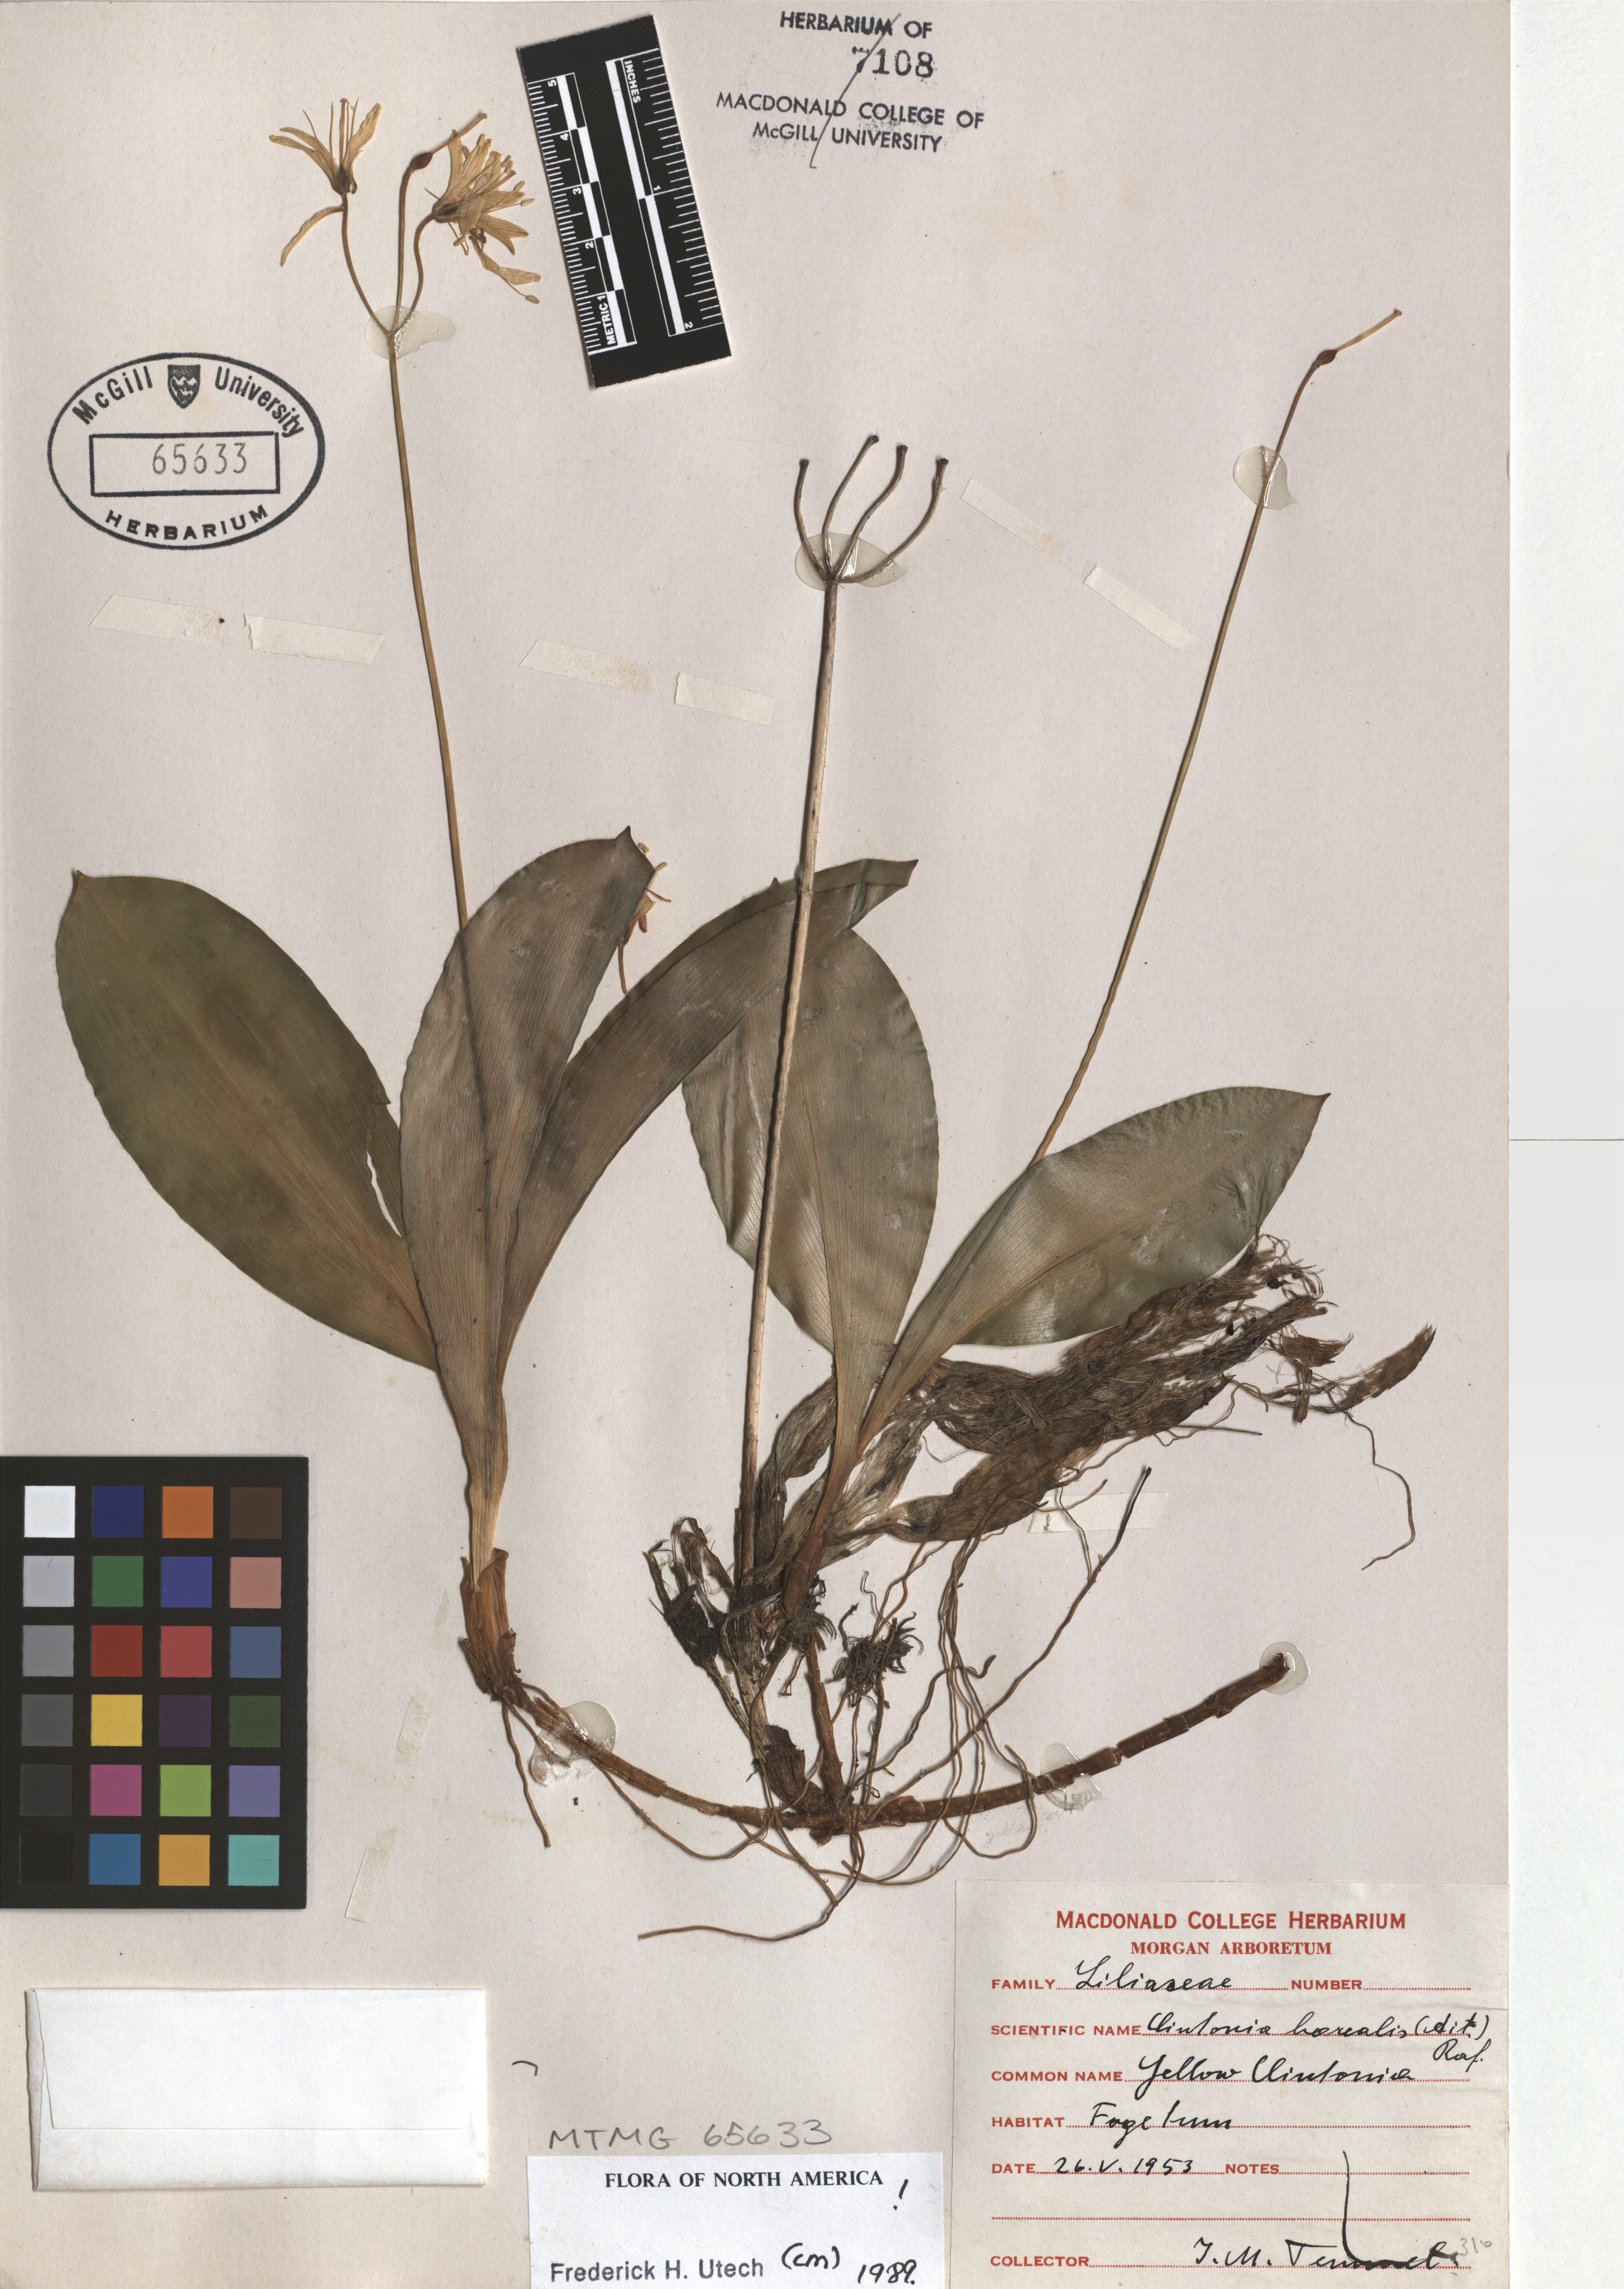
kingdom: Plantae
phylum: Tracheophyta
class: Liliopsida
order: Liliales
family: Liliaceae
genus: Clintonia
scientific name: Clintonia borealis
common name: Yellow clintonia
